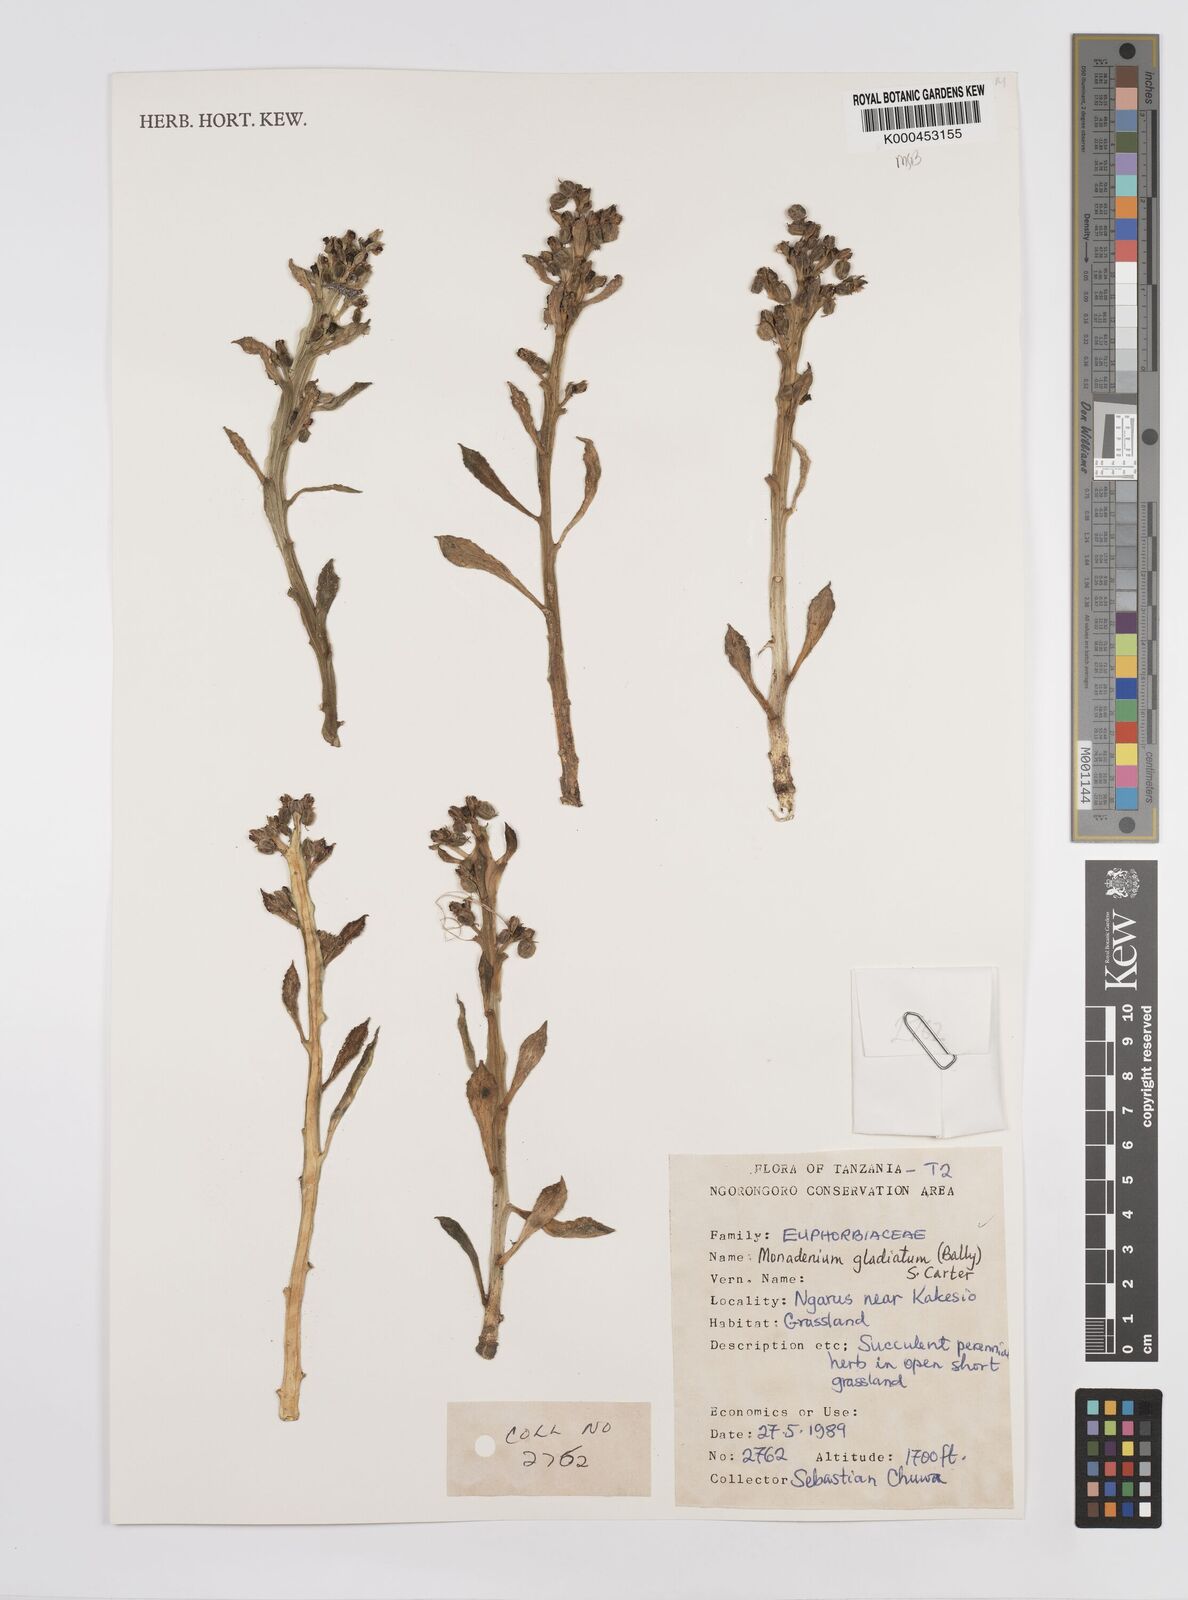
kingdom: Plantae
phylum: Tracheophyta
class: Magnoliopsida
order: Malpighiales
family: Euphorbiaceae
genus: Euphorbia
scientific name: Euphorbia gladiata
